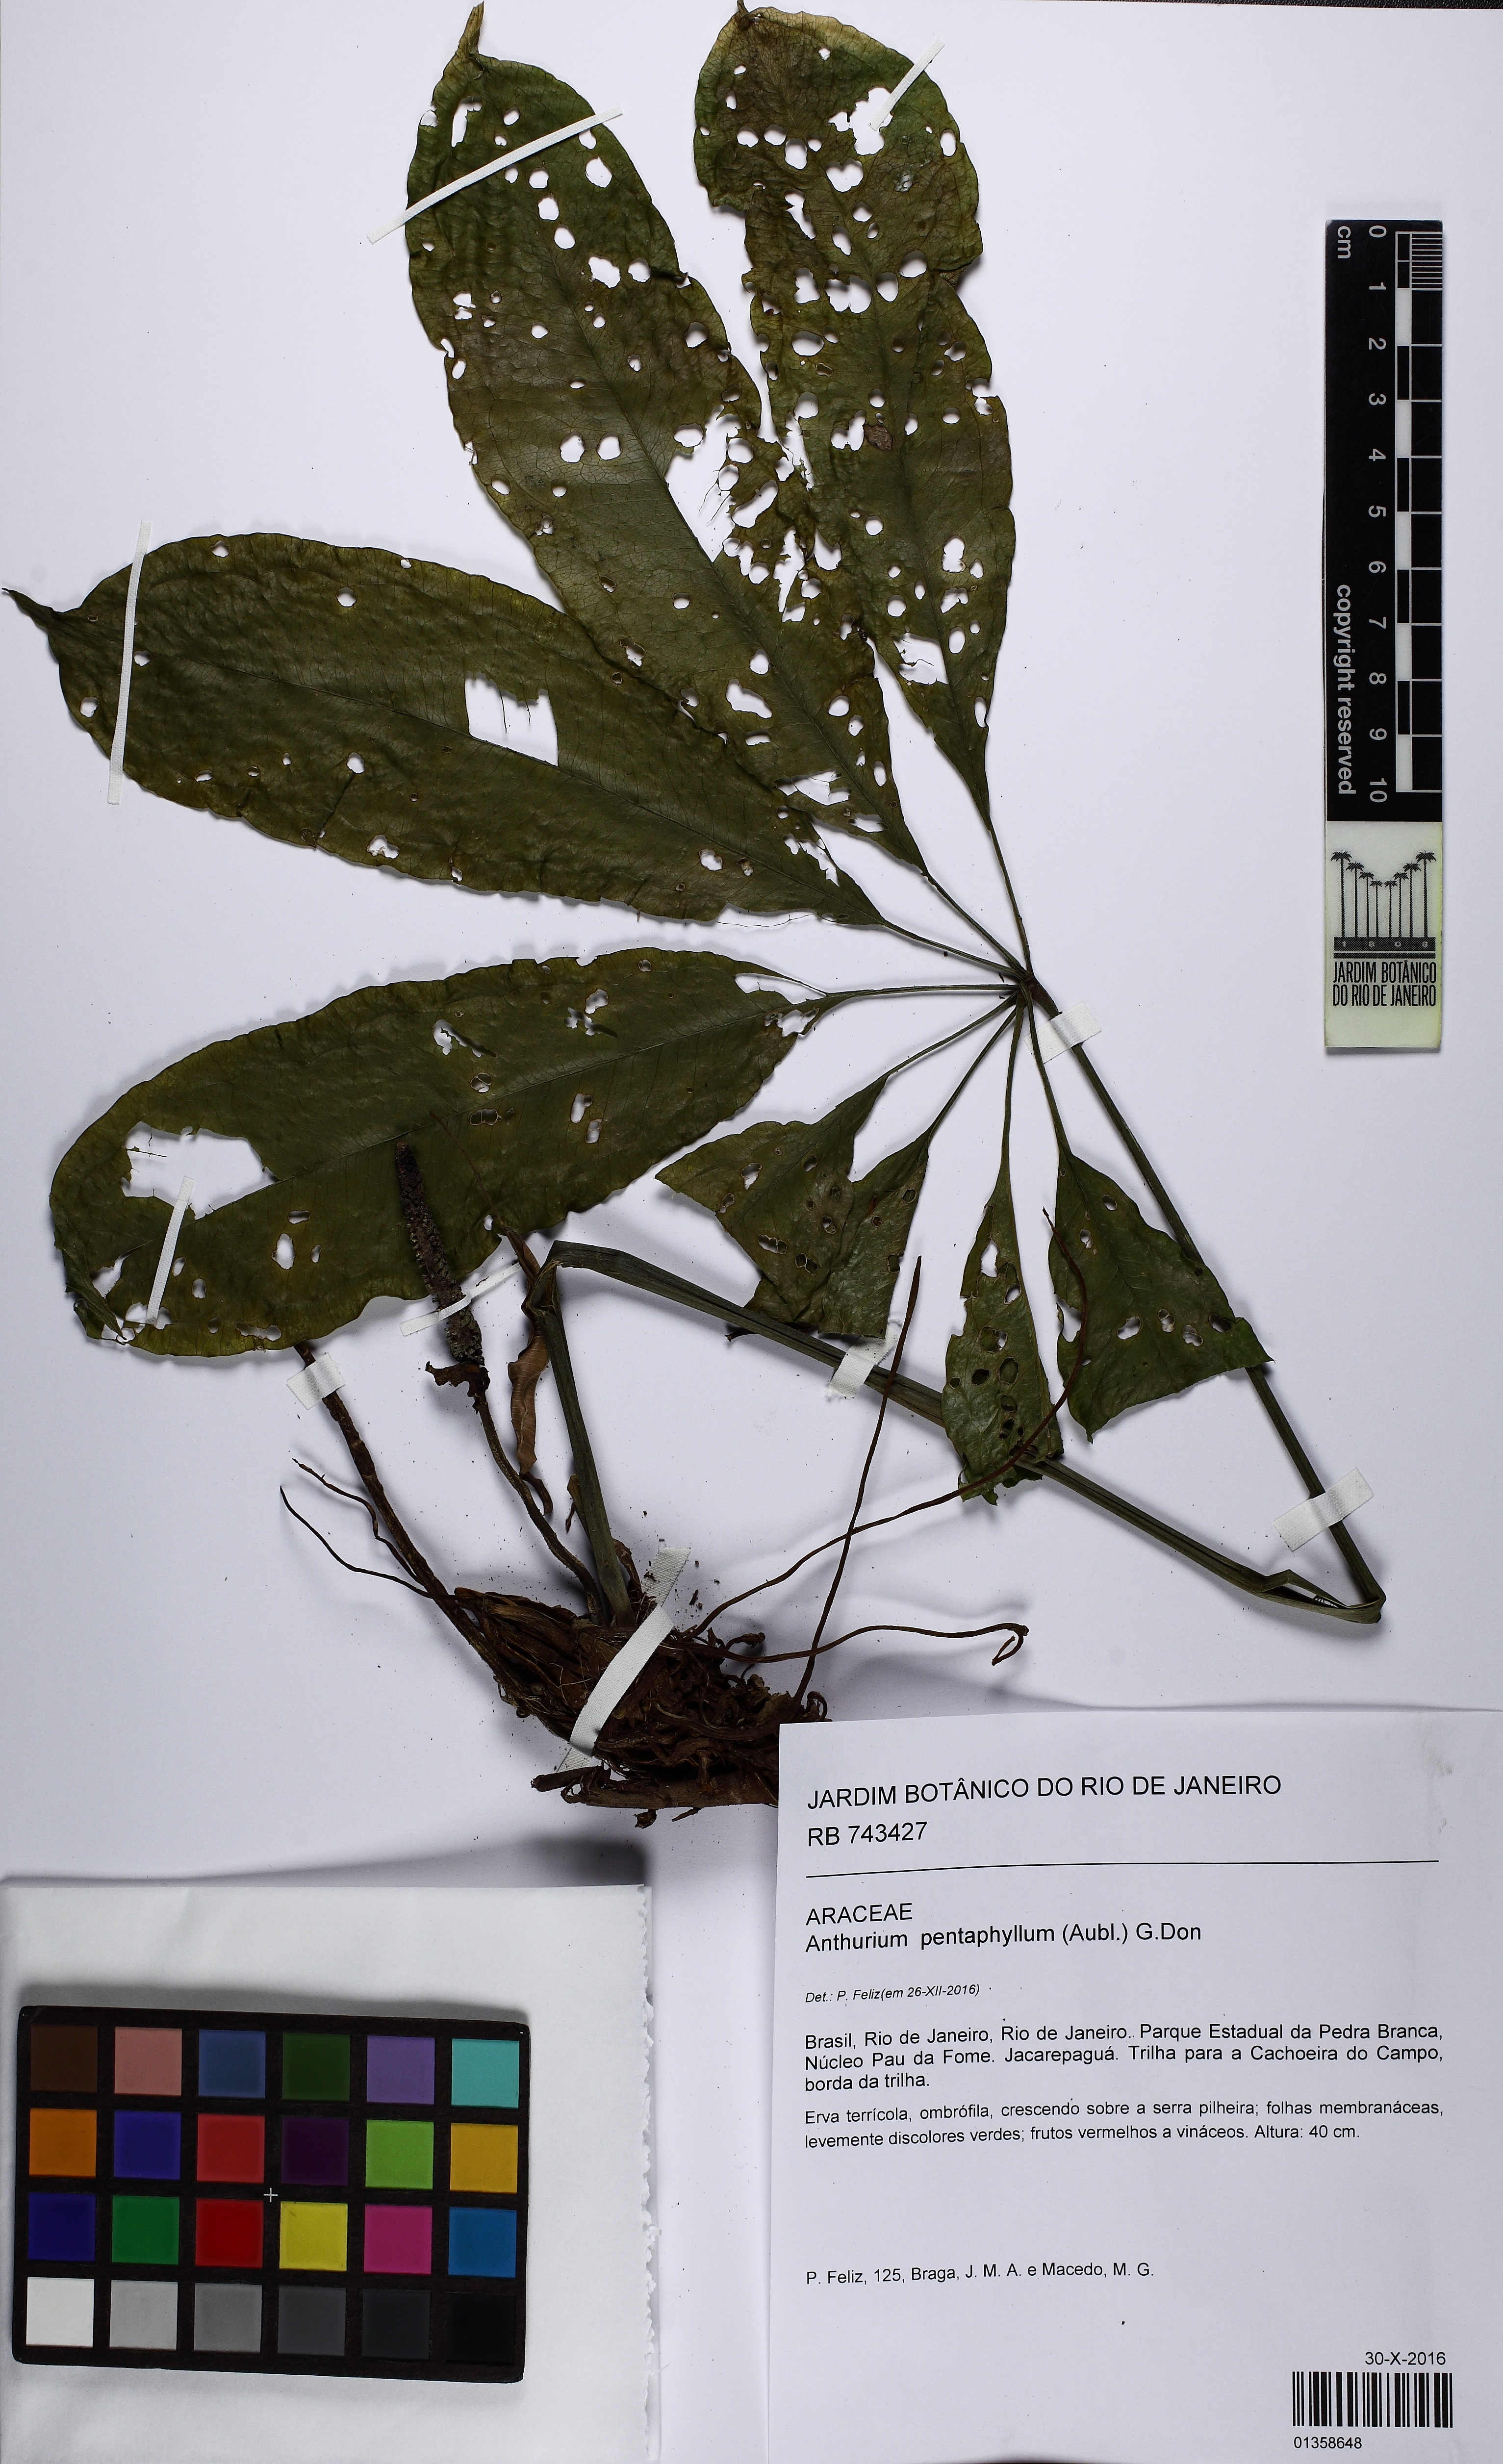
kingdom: Plantae
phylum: Tracheophyta
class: Liliopsida
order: Alismatales
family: Araceae
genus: Anthurium
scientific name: Anthurium pentaphyllum
